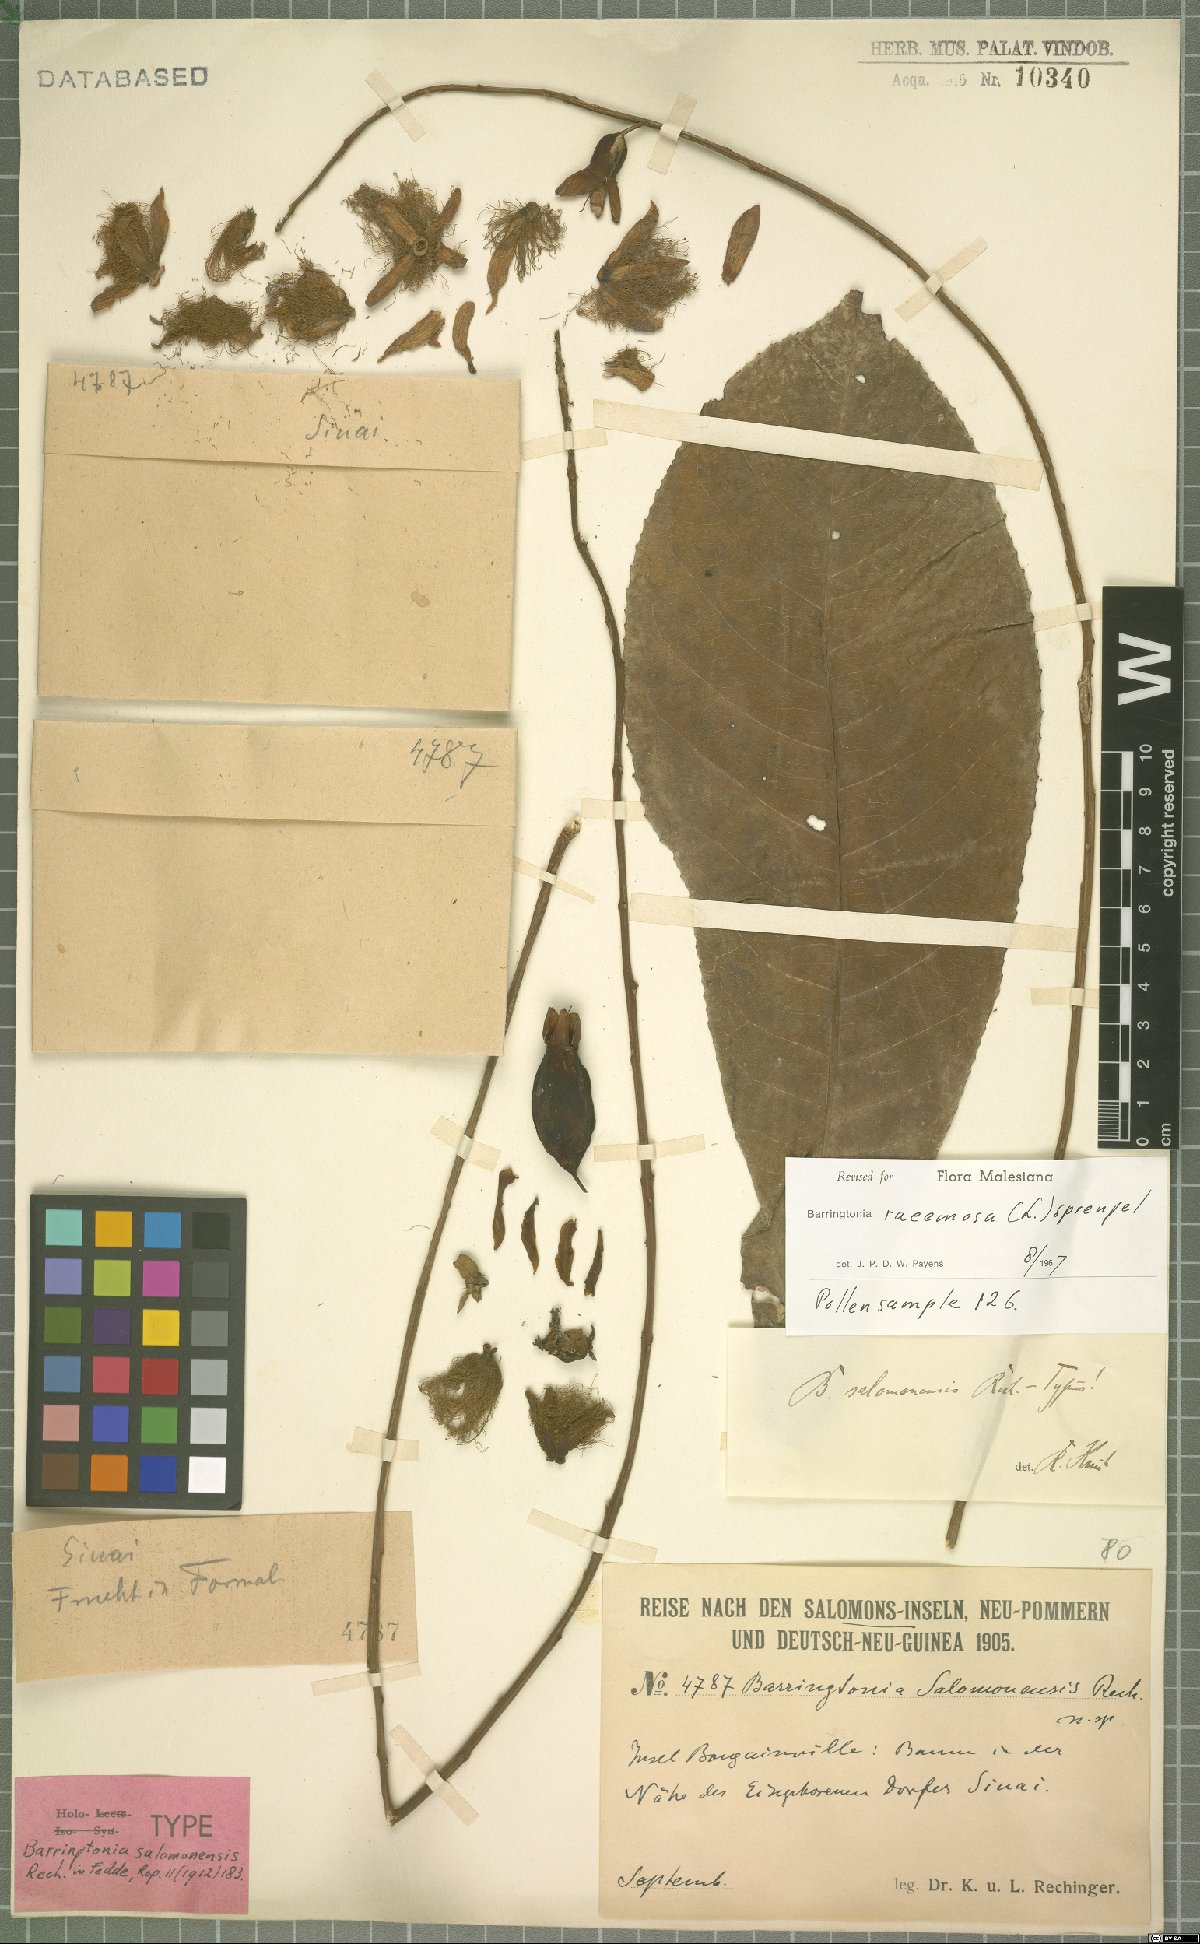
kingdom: Plantae
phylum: Tracheophyta
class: Magnoliopsida
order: Ericales
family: Lecythidaceae
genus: Barringtonia
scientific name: Barringtonia racemosa
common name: Brackwater mangrove
